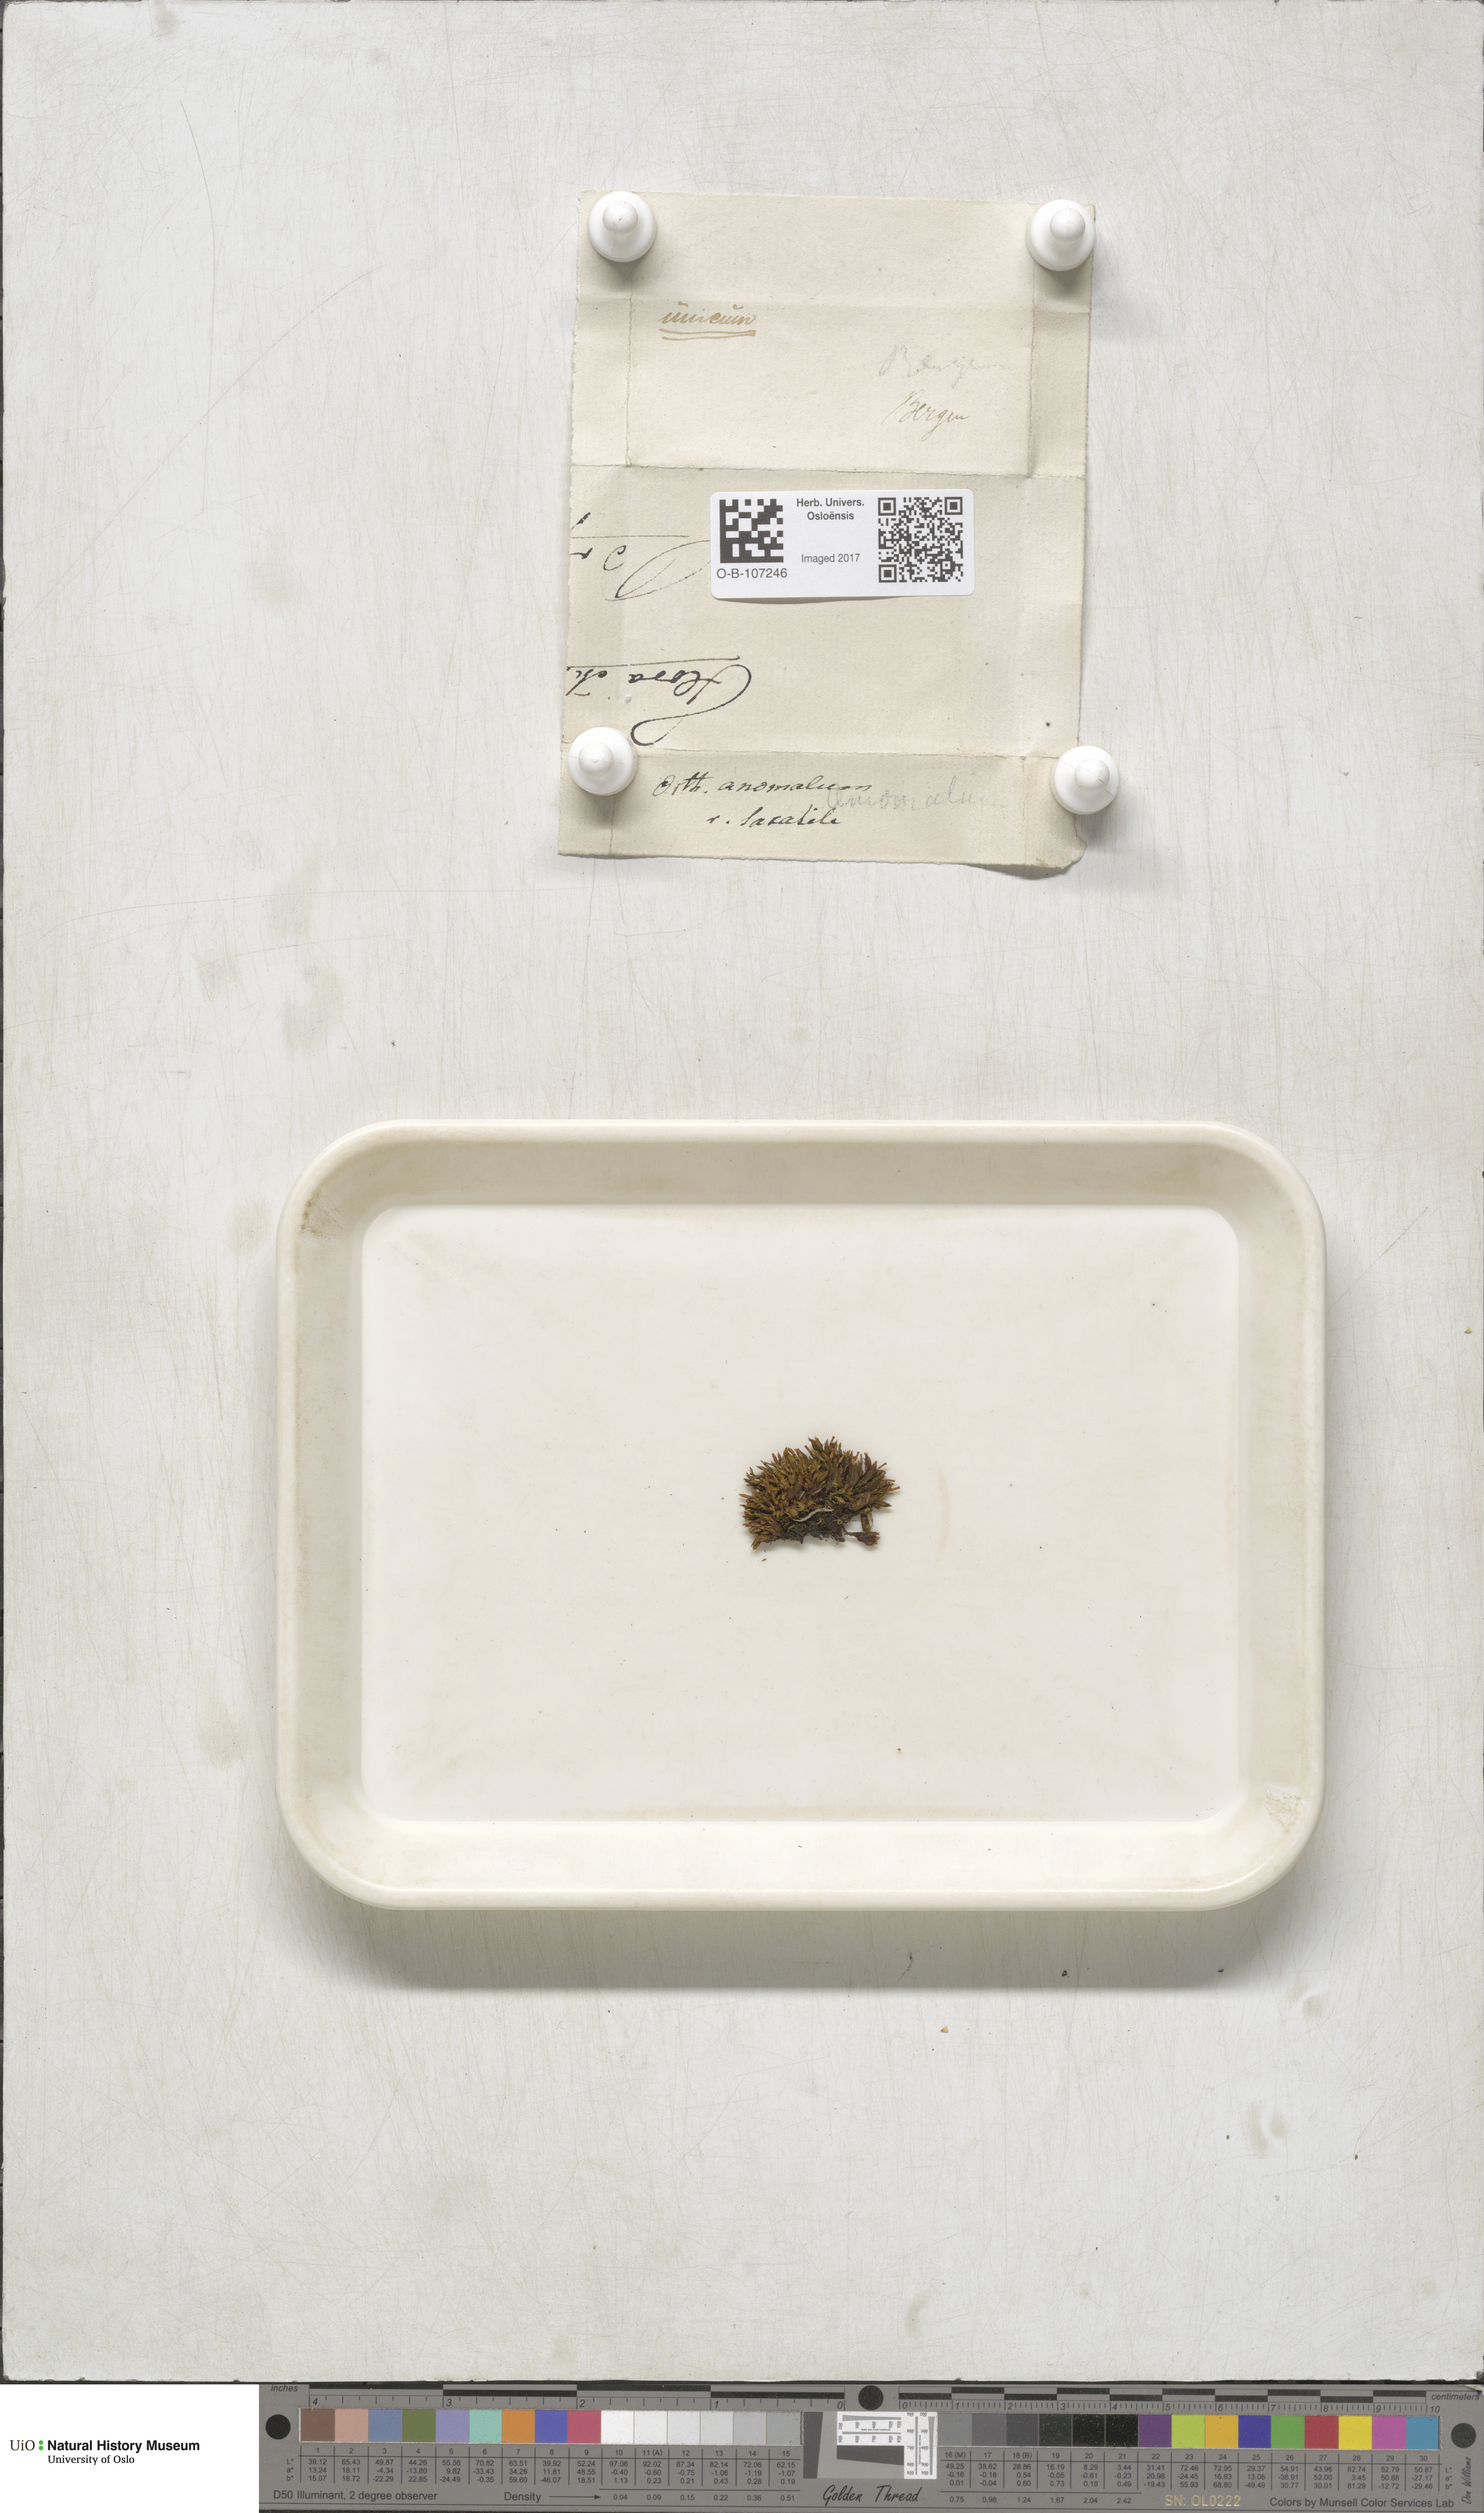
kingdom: Plantae
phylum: Bryophyta
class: Bryopsida
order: Orthotrichales
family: Orthotrichaceae
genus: Orthotrichum
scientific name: Orthotrichum anomalum
